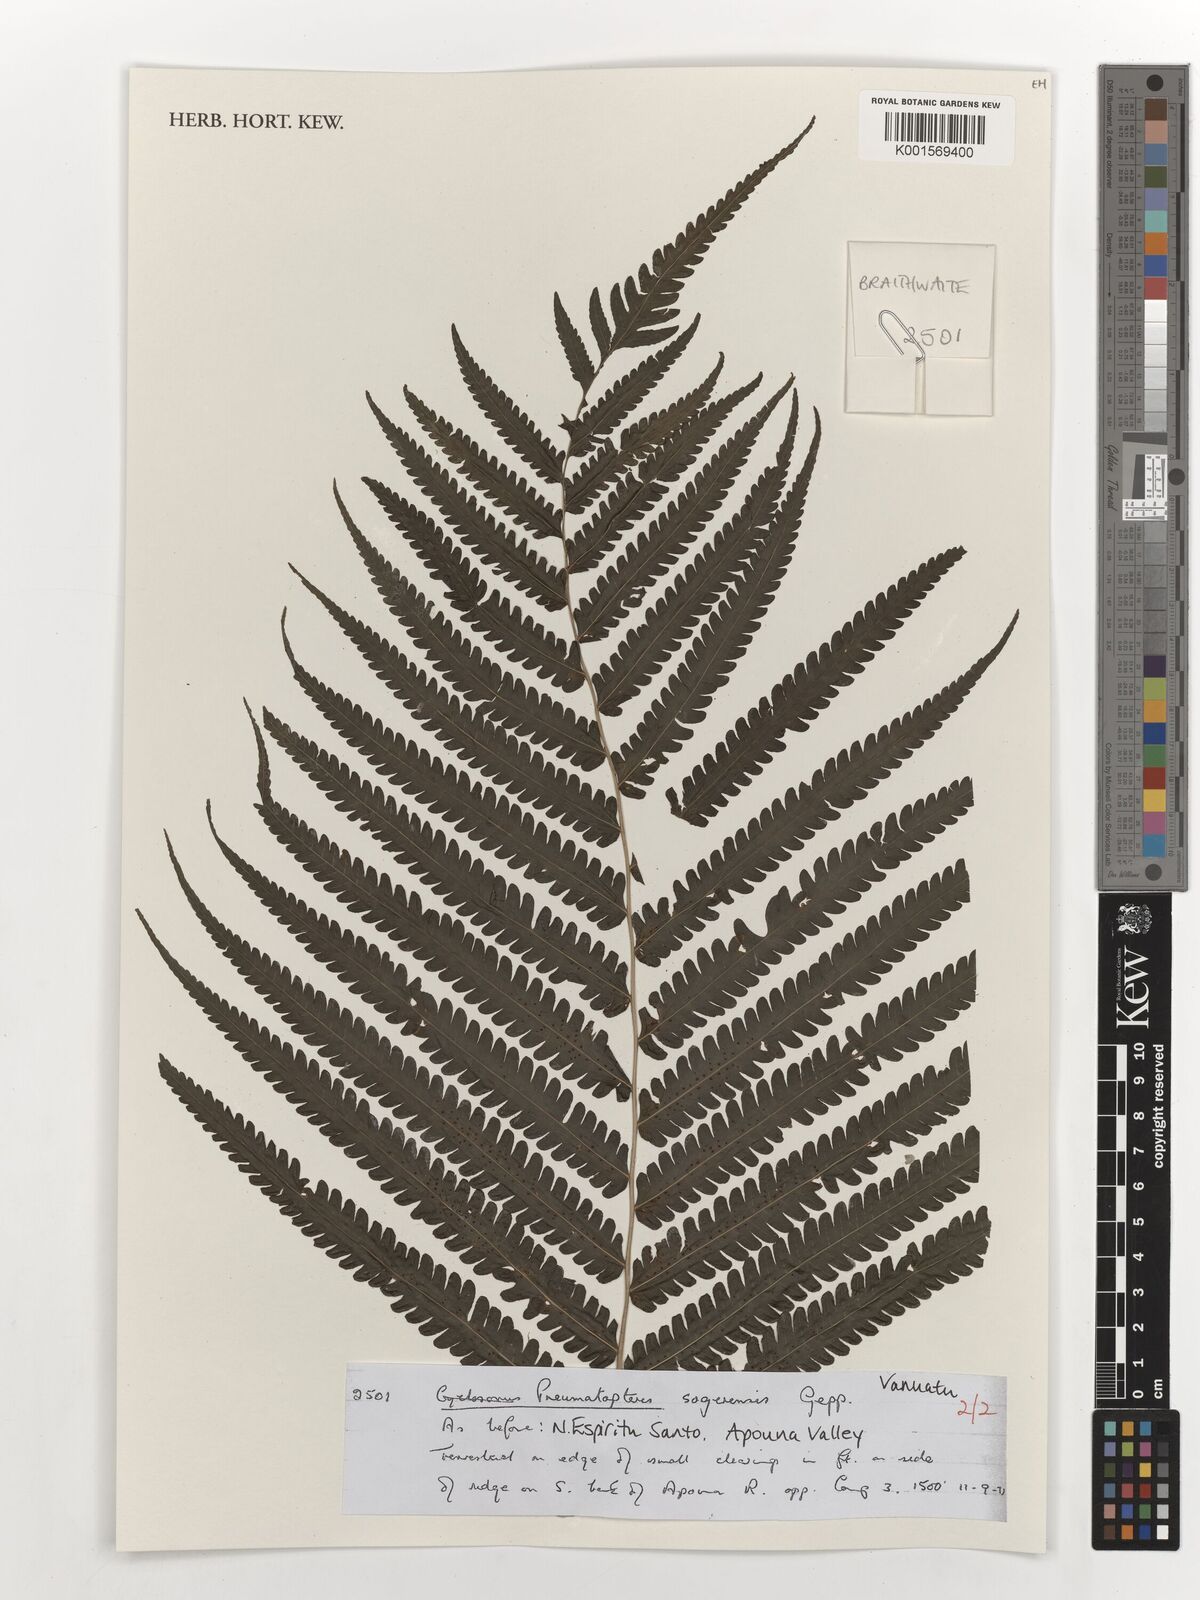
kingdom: Plantae
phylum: Tracheophyta
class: Polypodiopsida
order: Polypodiales
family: Thelypteridaceae
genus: Reholttumia
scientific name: Reholttumia sogerensis
